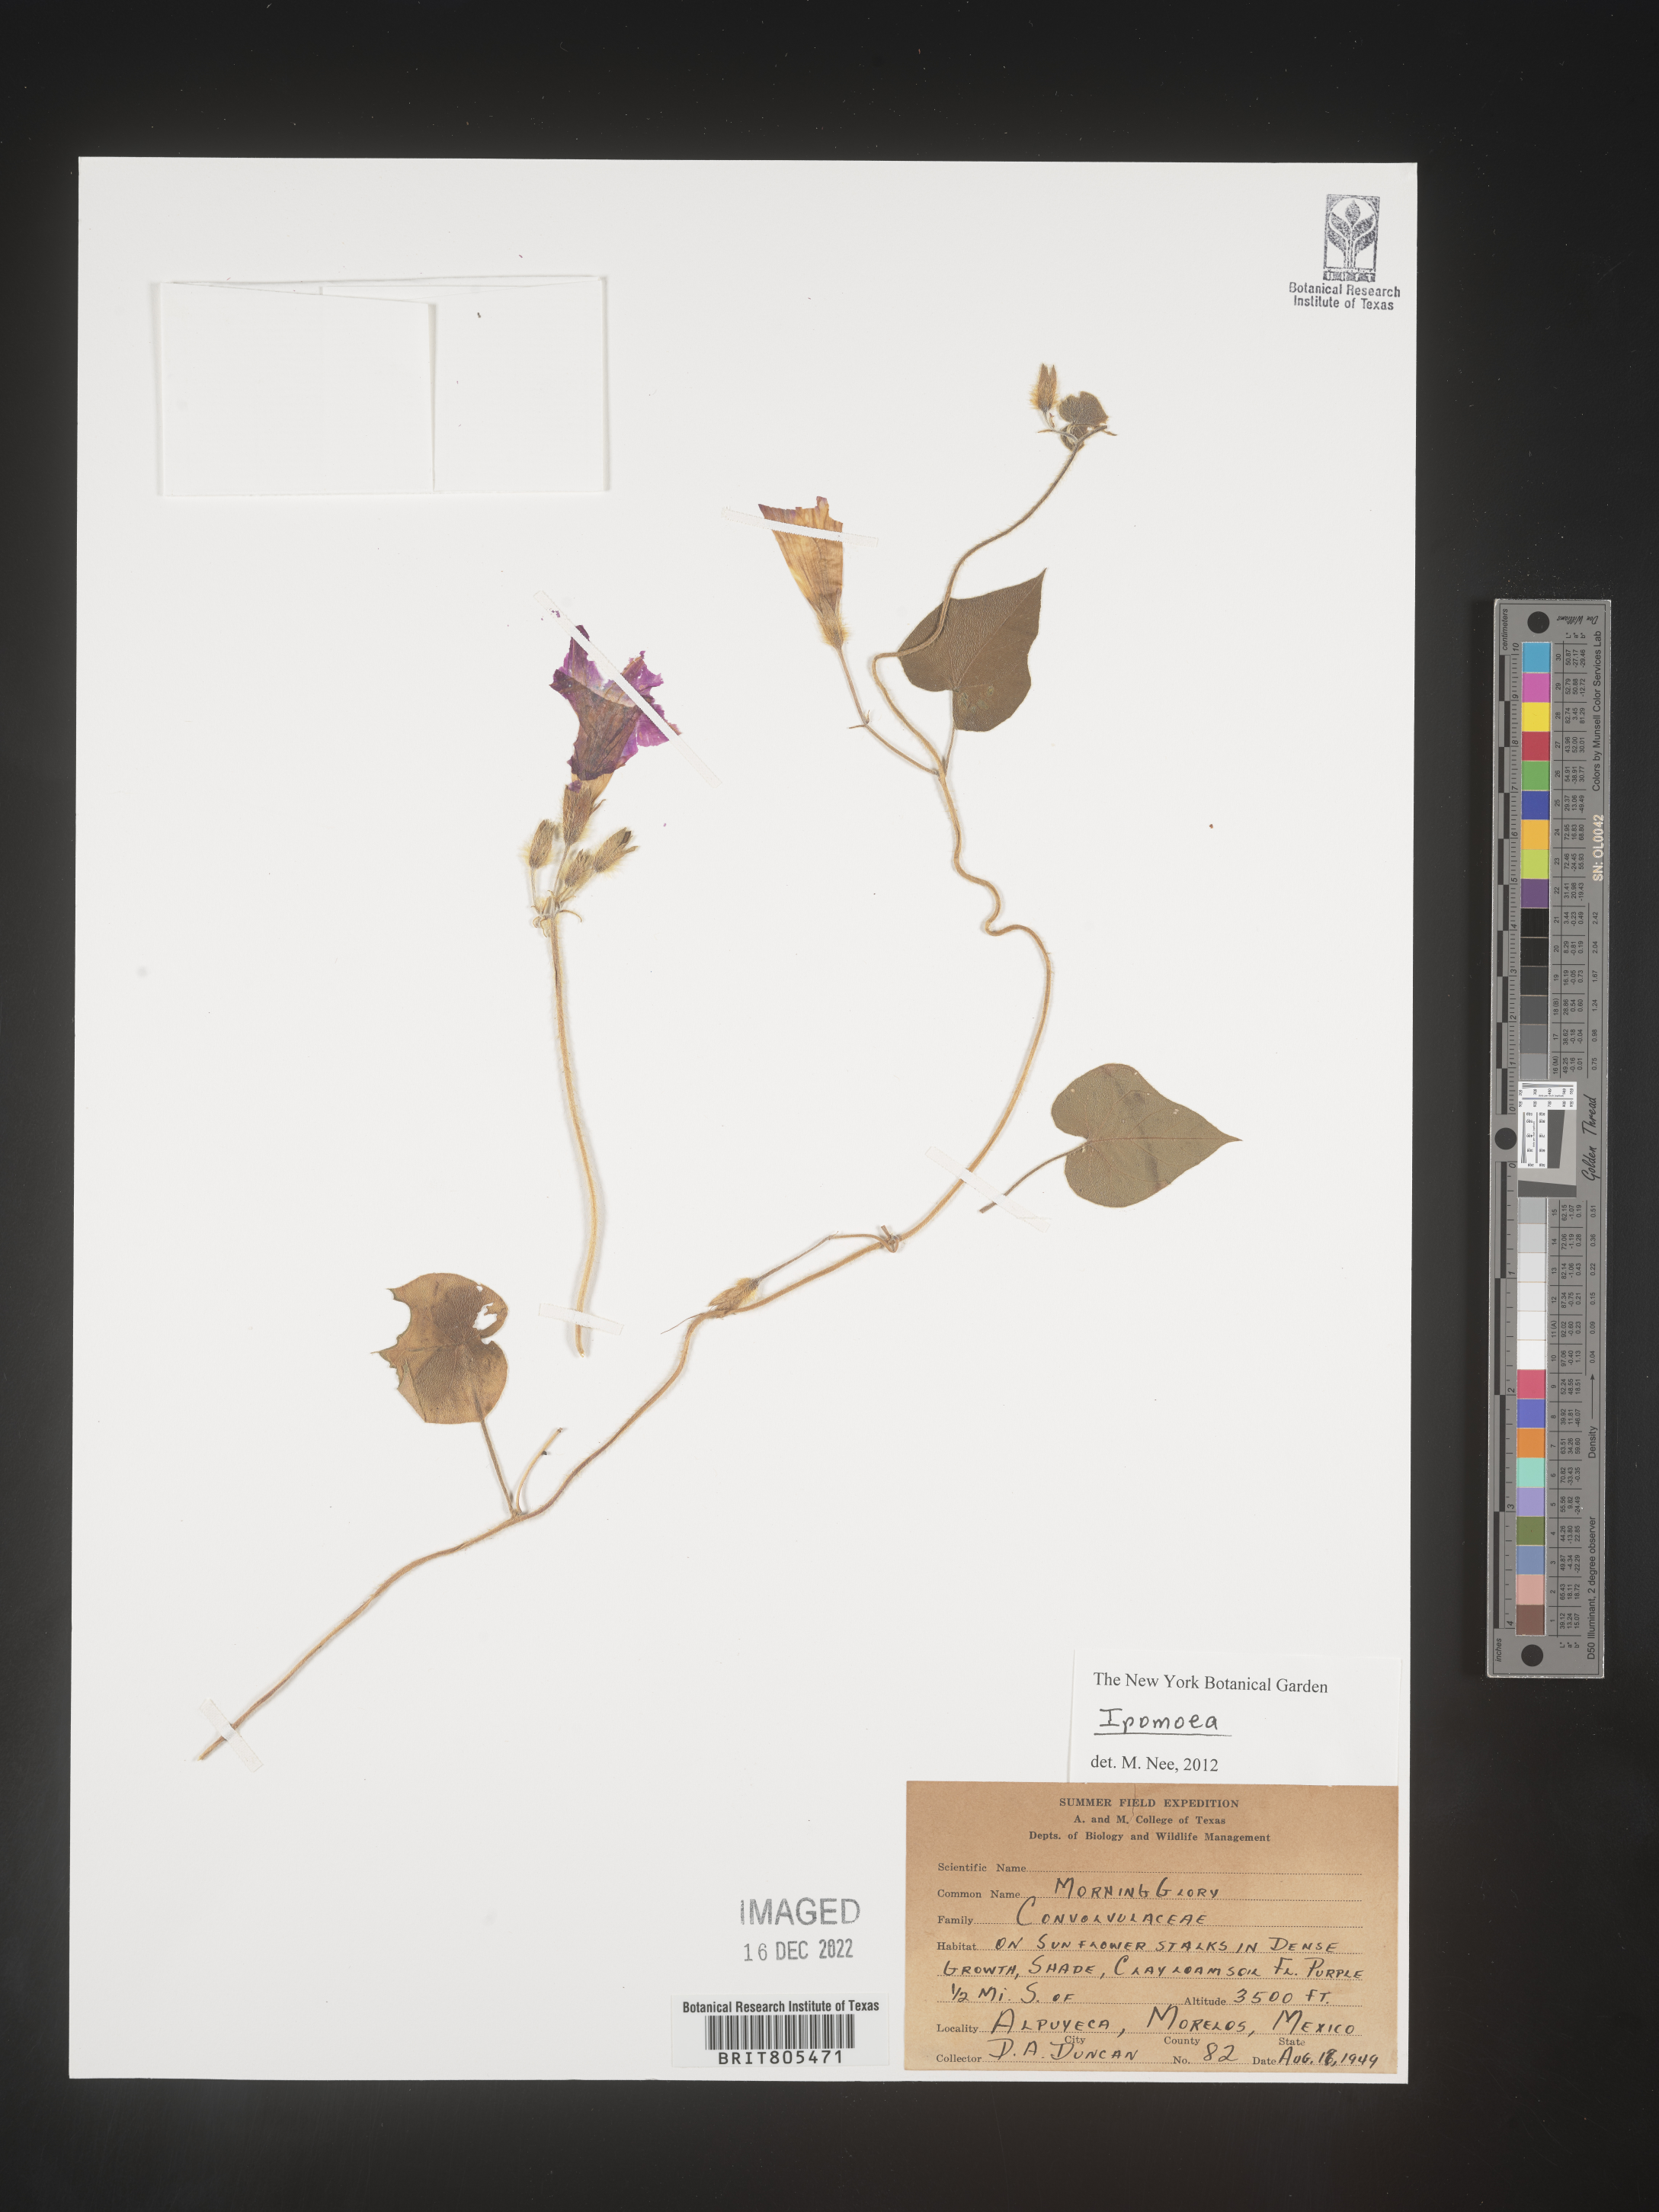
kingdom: Plantae
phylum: Tracheophyta
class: Magnoliopsida
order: Solanales
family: Convolvulaceae
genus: Ipomoea
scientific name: Ipomoea
